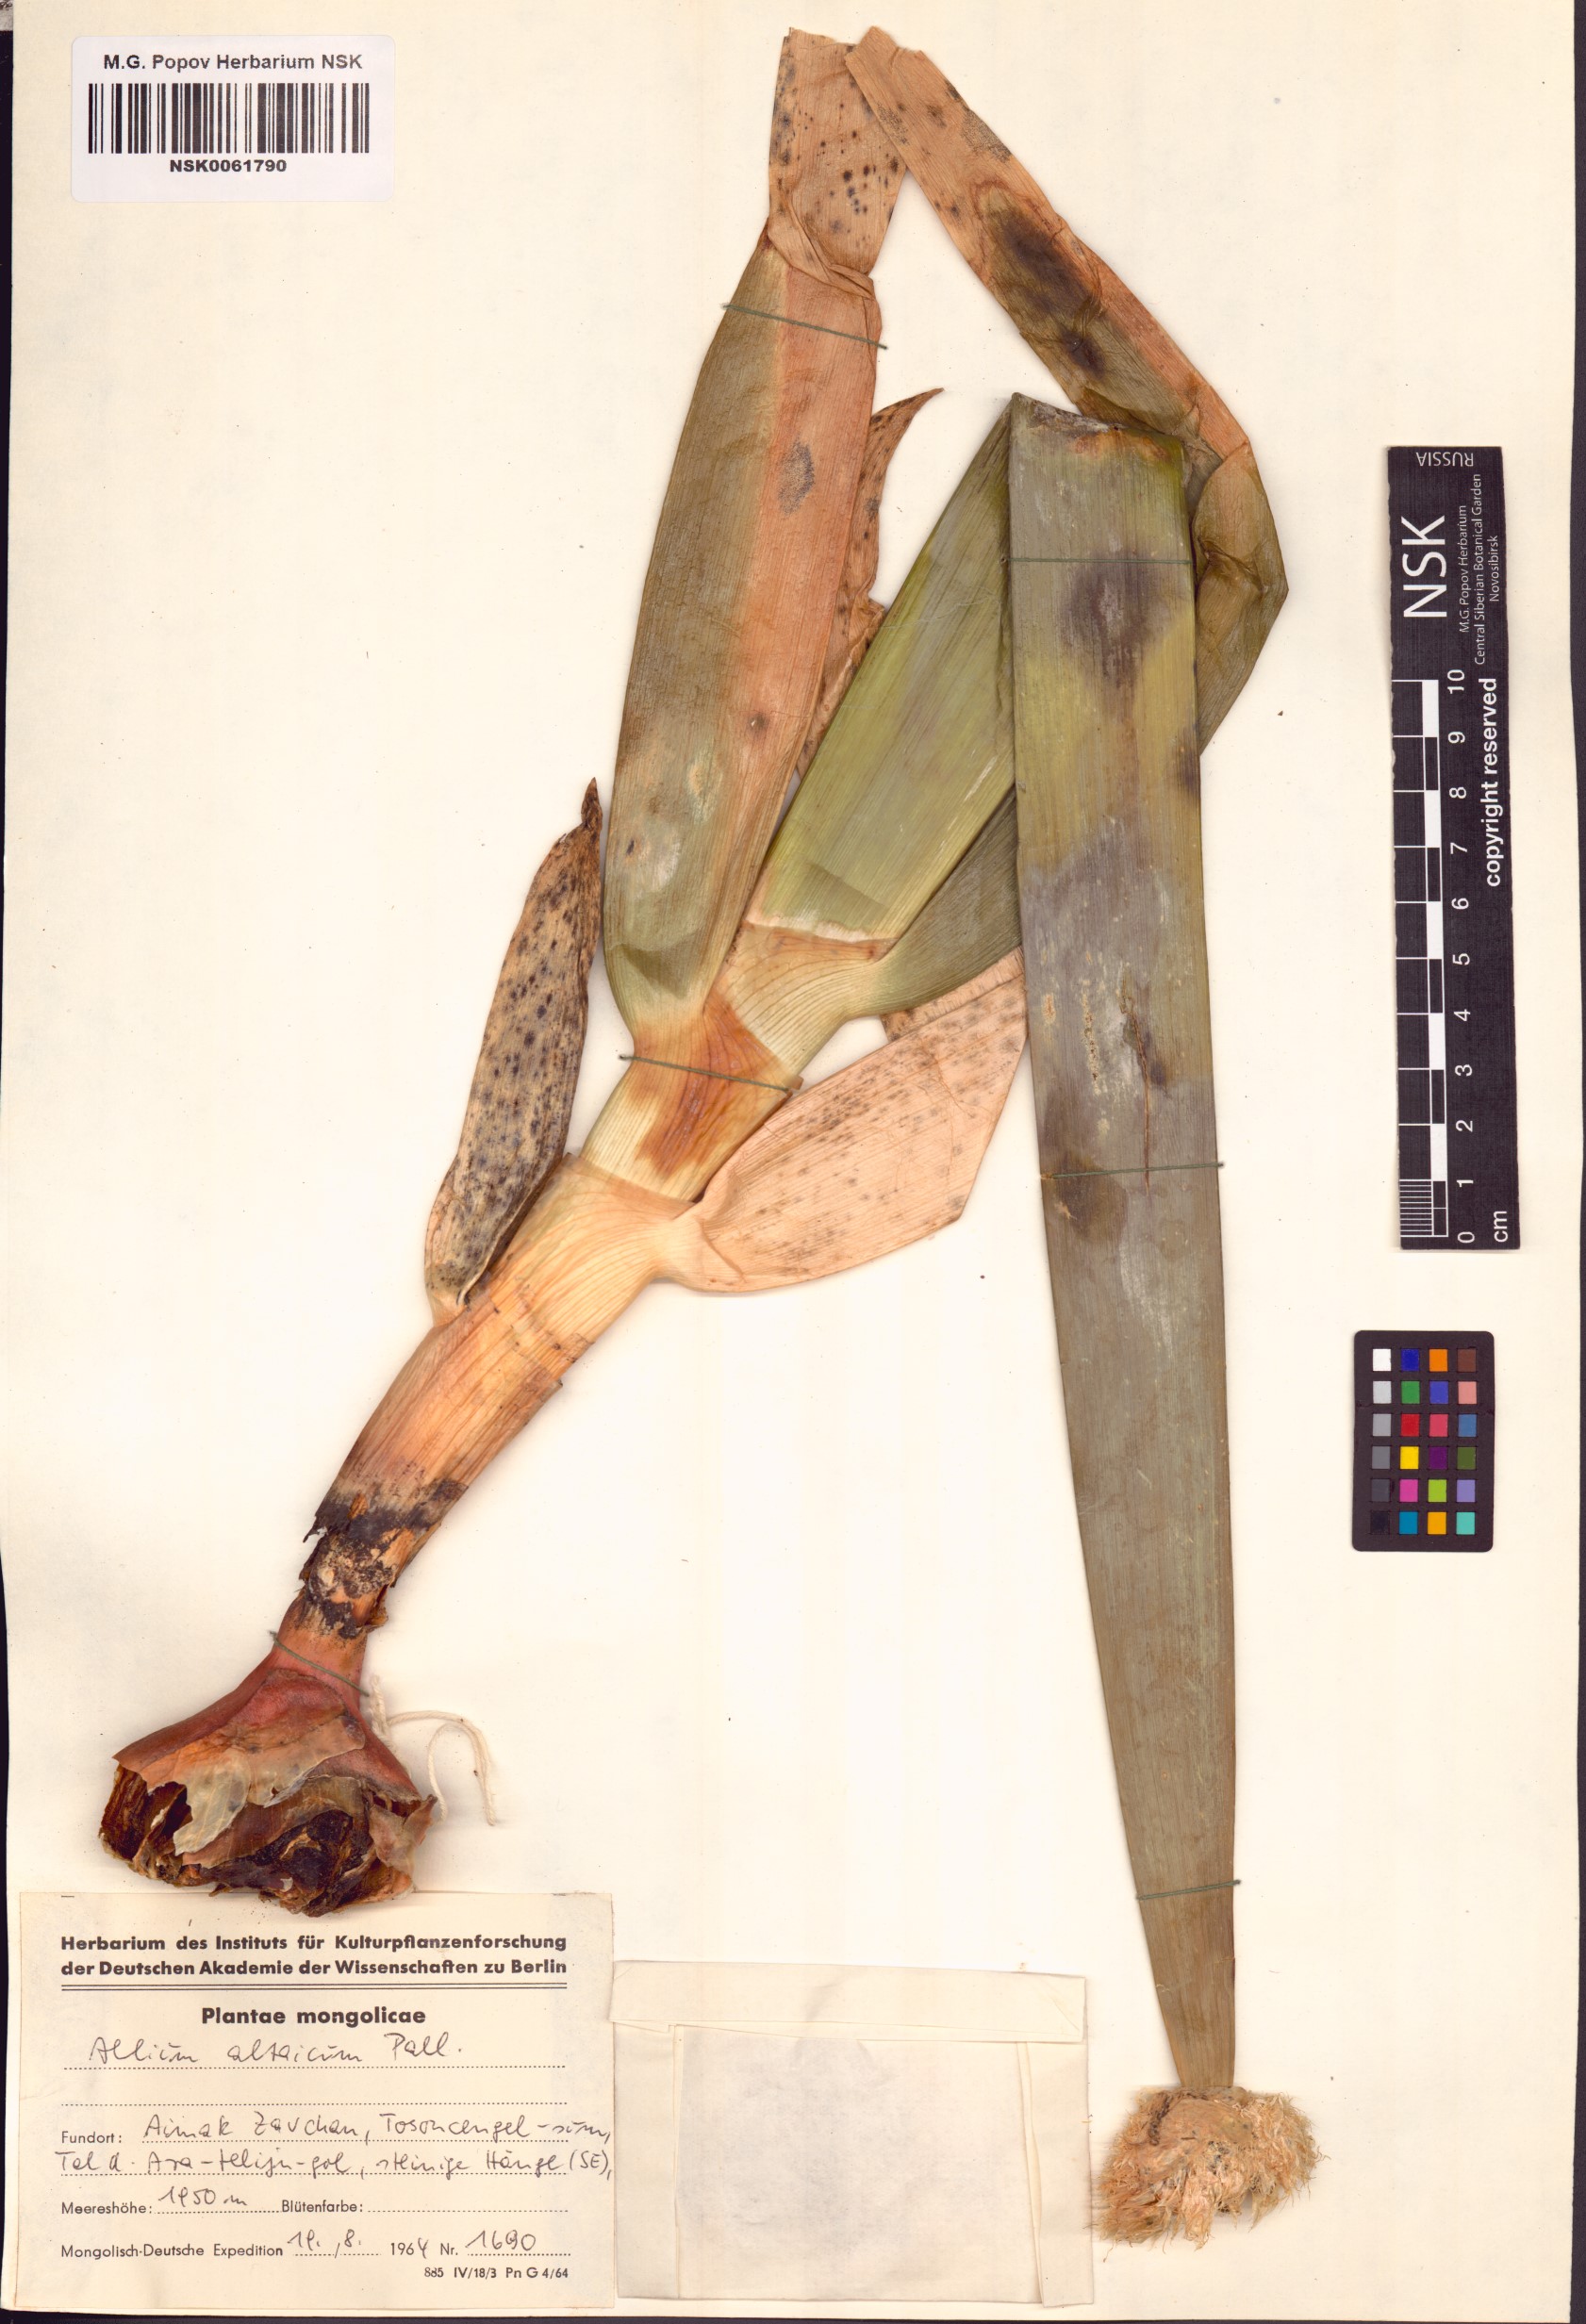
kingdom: Plantae
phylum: Tracheophyta
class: Liliopsida
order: Asparagales
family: Amaryllidaceae
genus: Allium
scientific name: Allium altaicum
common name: Altai onion
